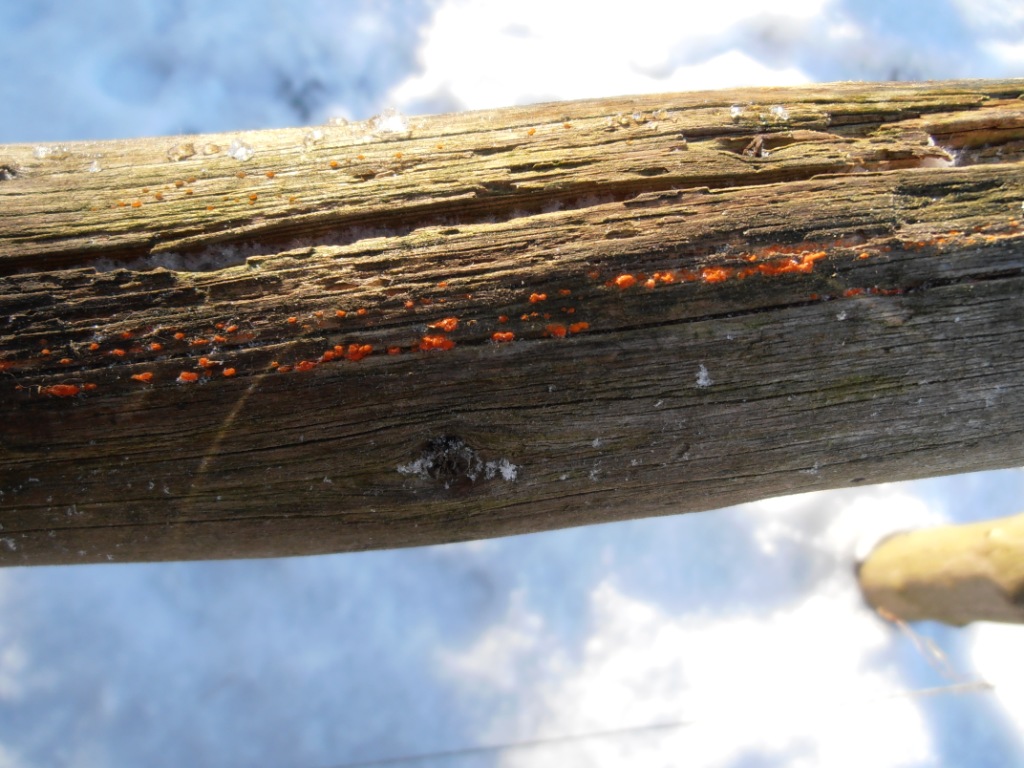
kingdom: Fungi
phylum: Basidiomycota
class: Dacrymycetes
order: Dacrymycetales
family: Dacrymycetaceae
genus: Dacrymyces
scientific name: Dacrymyces stillatus
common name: almindelig tåresvamp
